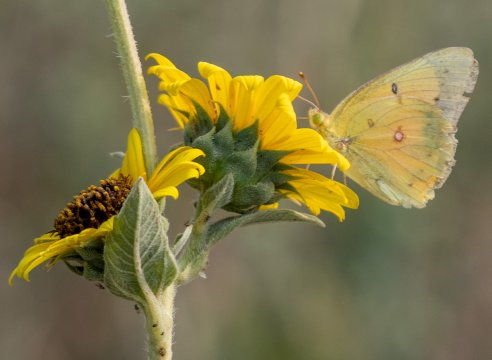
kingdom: Animalia
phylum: Arthropoda
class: Insecta
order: Lepidoptera
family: Pieridae
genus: Colias
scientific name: Colias eurytheme
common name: Orange Sulphur
